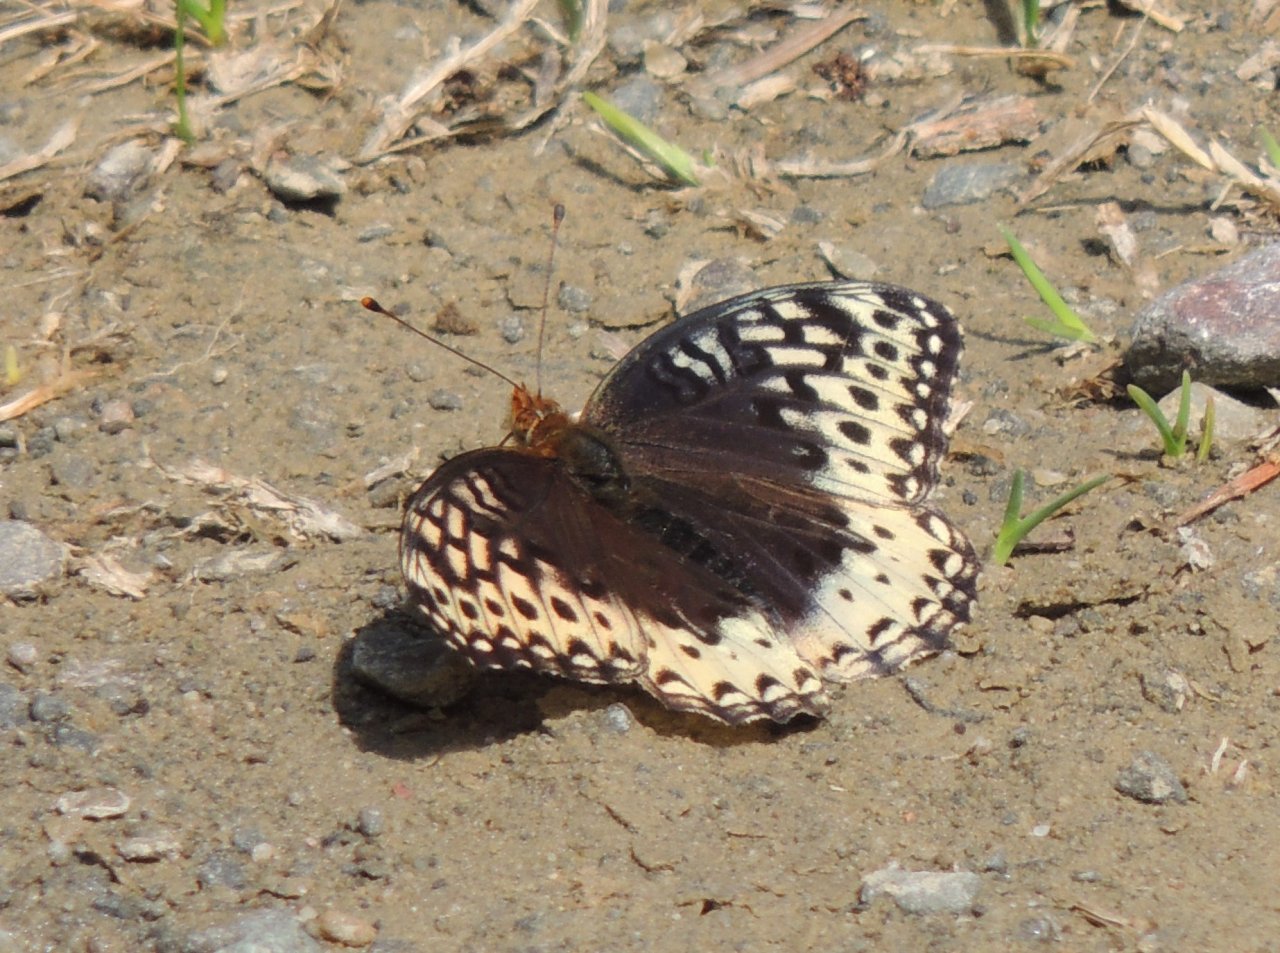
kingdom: Animalia
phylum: Arthropoda
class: Insecta
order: Lepidoptera
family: Nymphalidae
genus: Speyeria
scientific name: Speyeria cybele
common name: Great Spangled Fritillary
